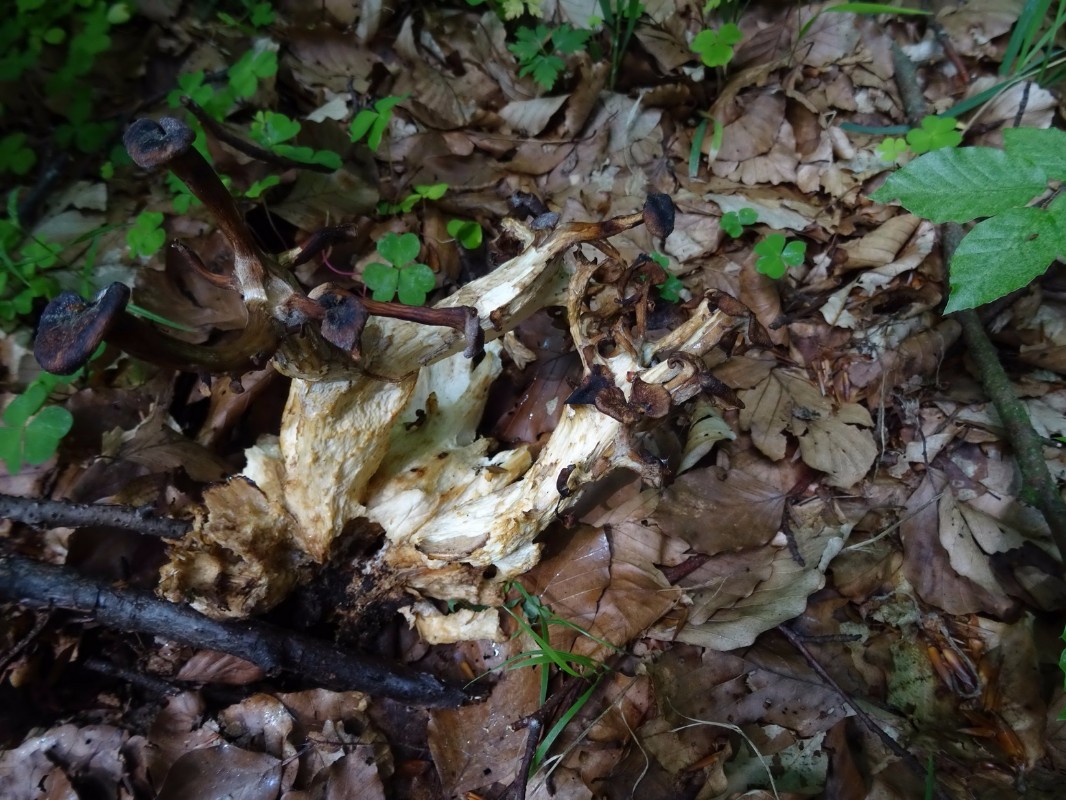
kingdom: Fungi
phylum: Basidiomycota
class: Agaricomycetes
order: Polyporales
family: Polyporaceae
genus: Polyporus
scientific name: Polyporus umbellatus
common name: skærmformet stilkporesvamp
